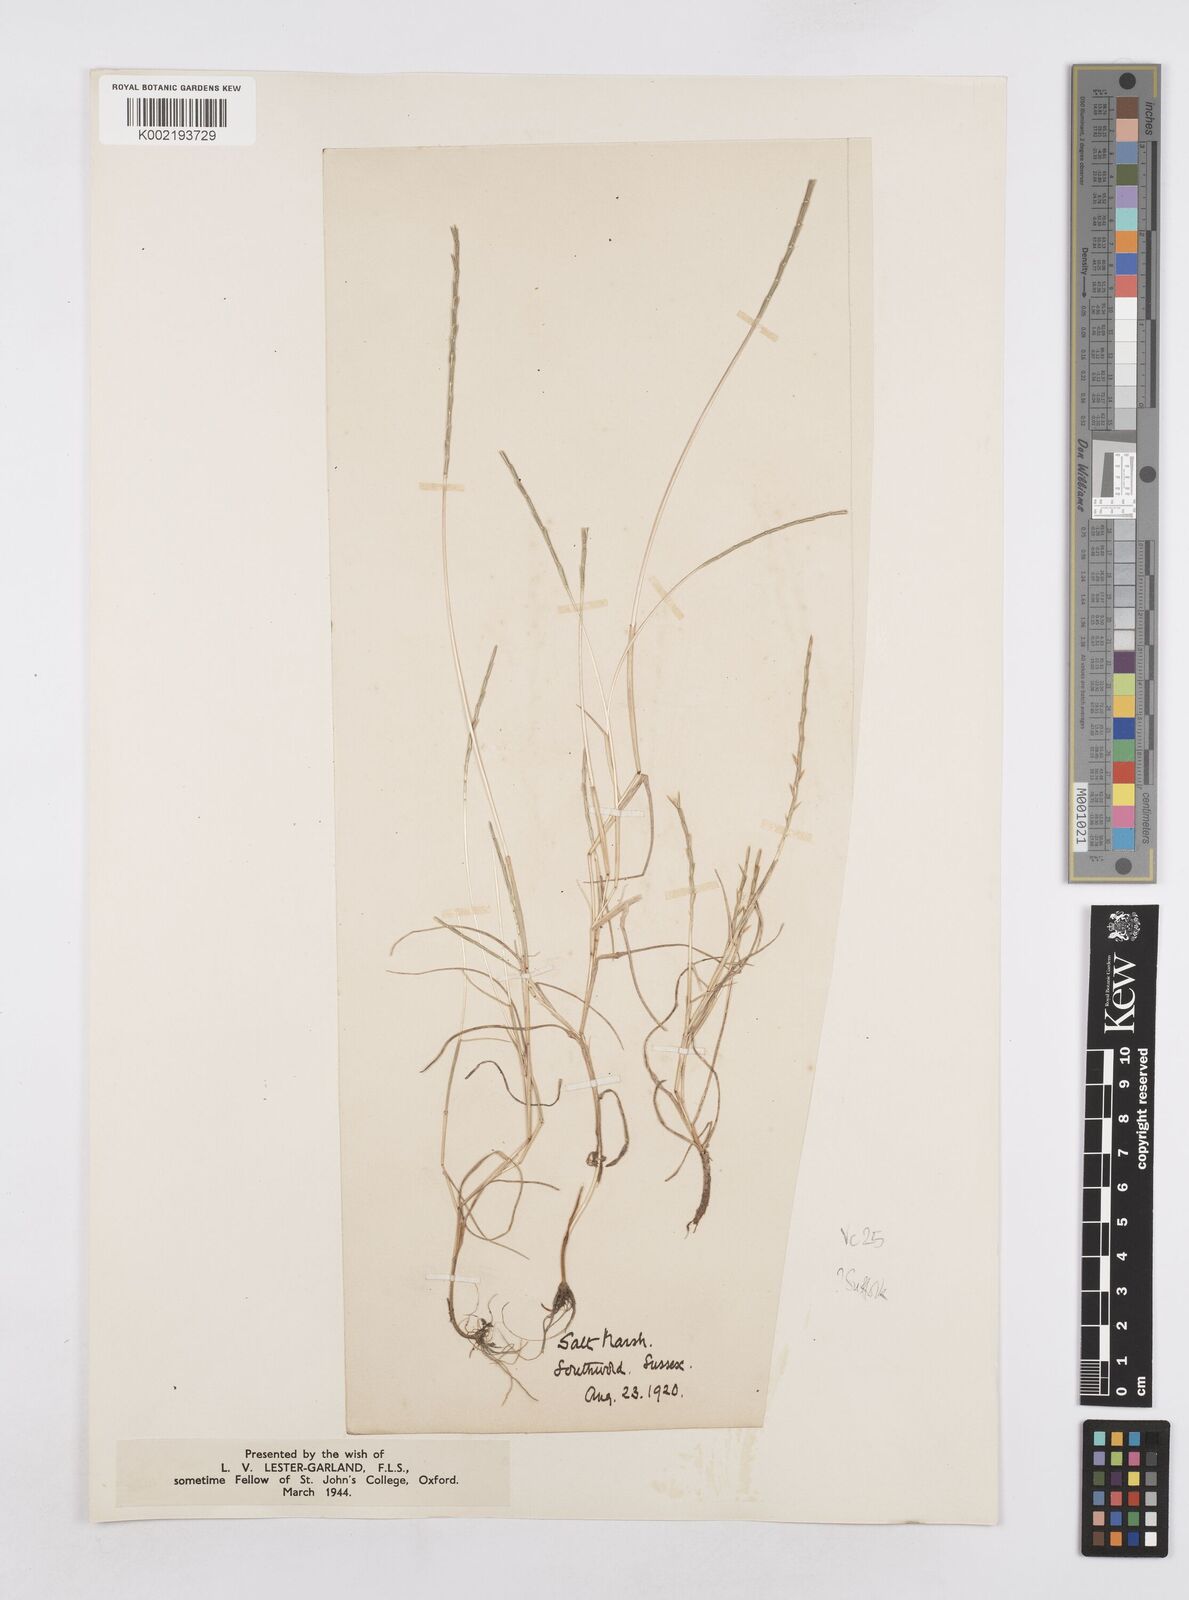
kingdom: Plantae
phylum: Tracheophyta
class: Liliopsida
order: Poales
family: Poaceae
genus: Parapholis
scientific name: Parapholis strigosa
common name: Hard-grass
